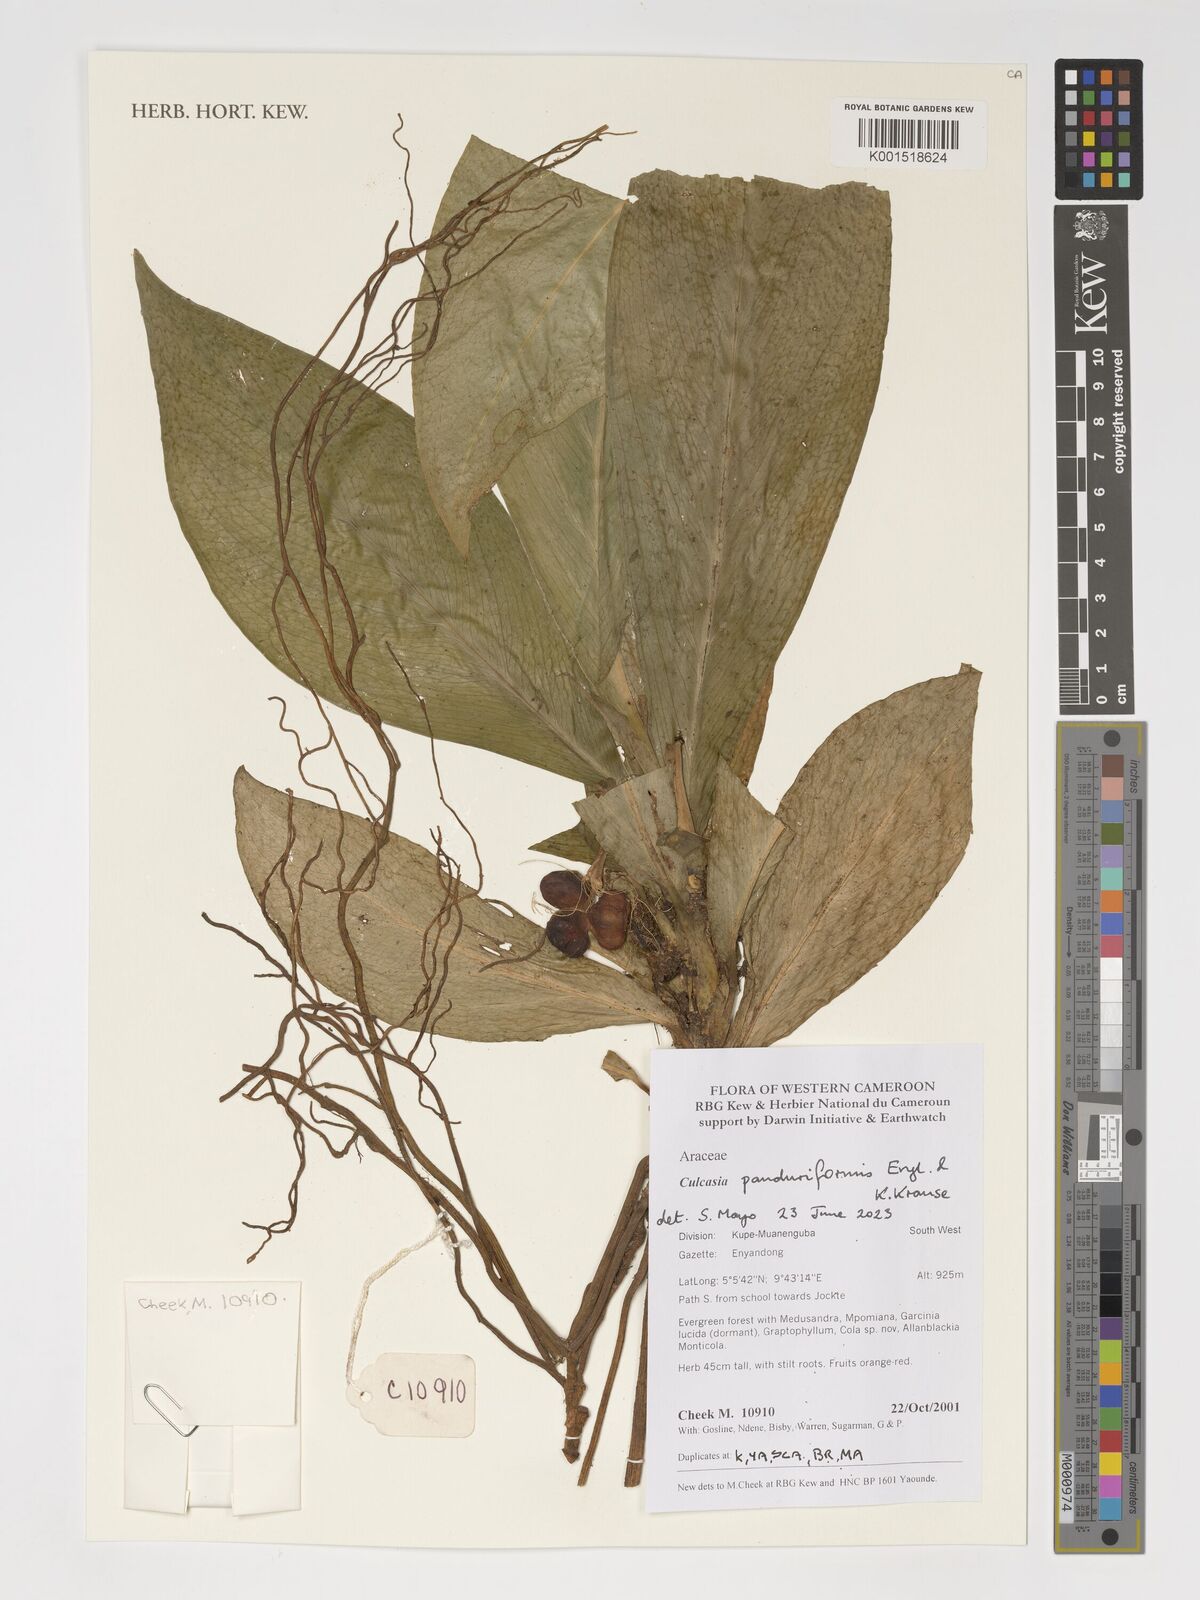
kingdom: Plantae
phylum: Tracheophyta
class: Liliopsida
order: Alismatales
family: Araceae
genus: Culcasia
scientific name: Culcasia panduriformis
